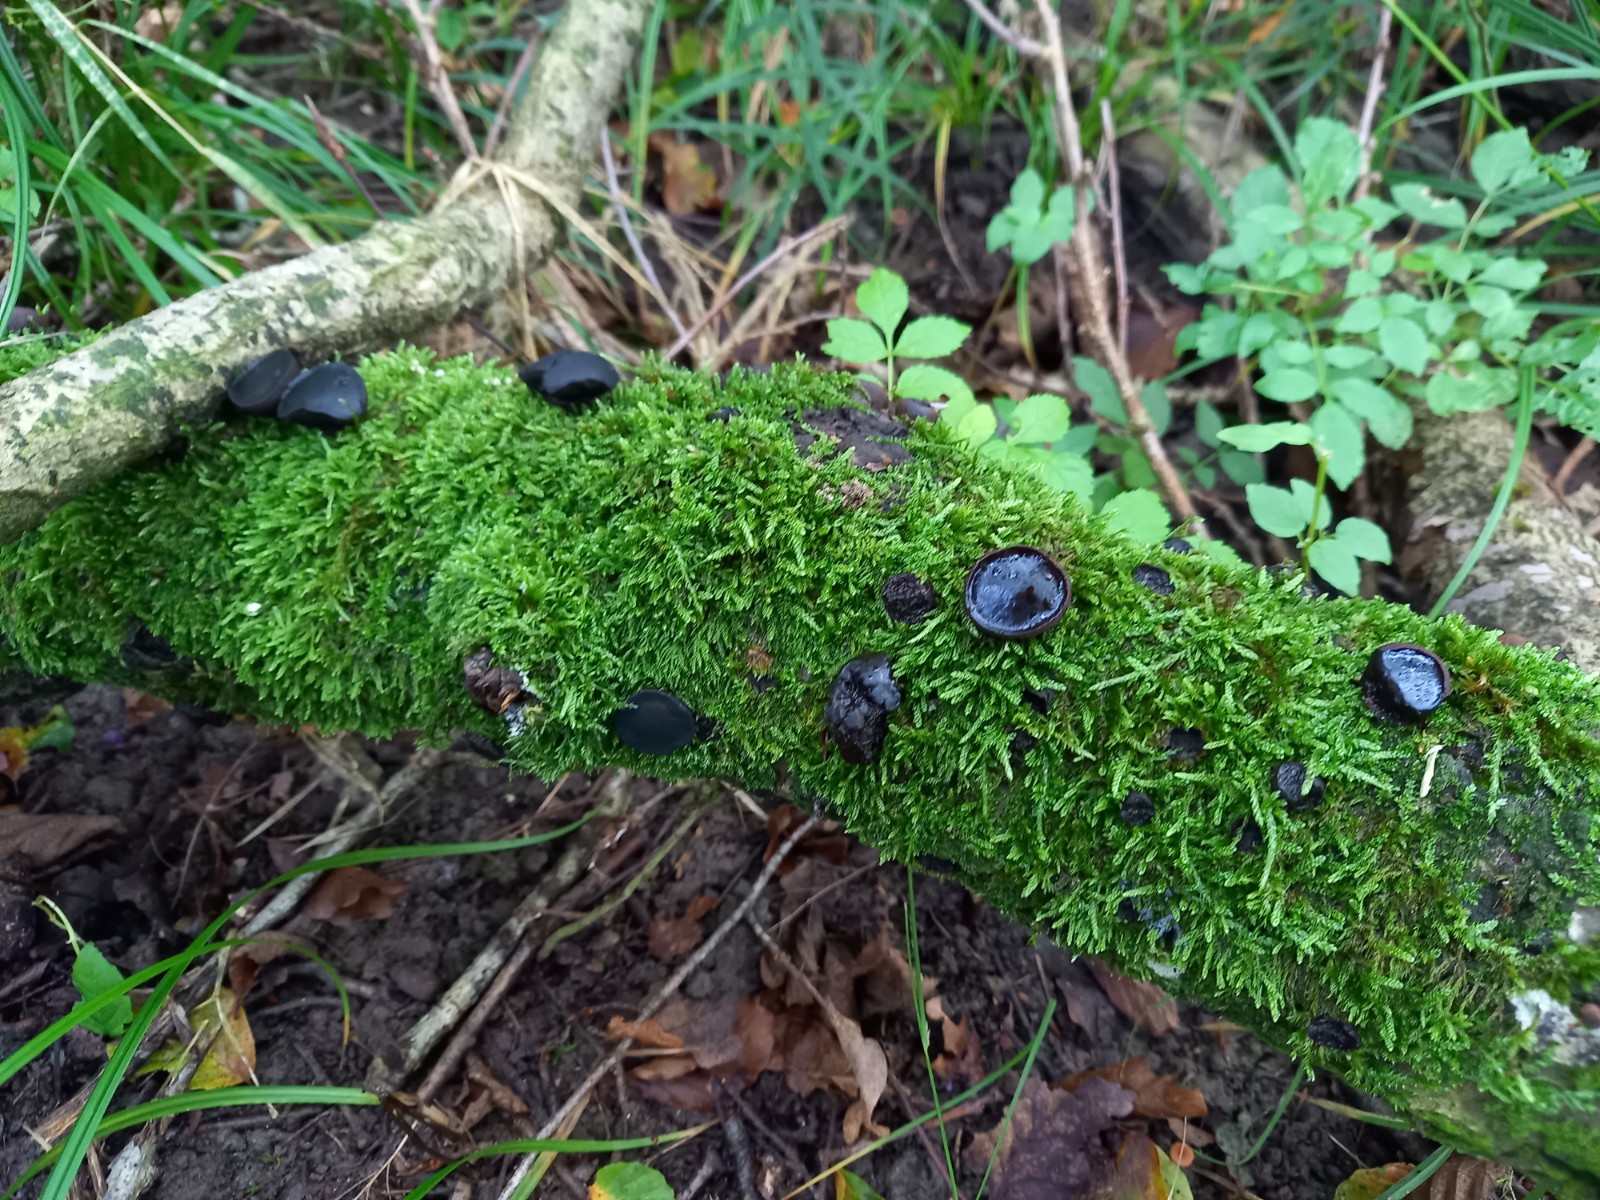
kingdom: Fungi
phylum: Ascomycota
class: Leotiomycetes
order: Phacidiales
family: Phacidiaceae
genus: Bulgaria
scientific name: Bulgaria inquinans
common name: afsmittende topsvamp
